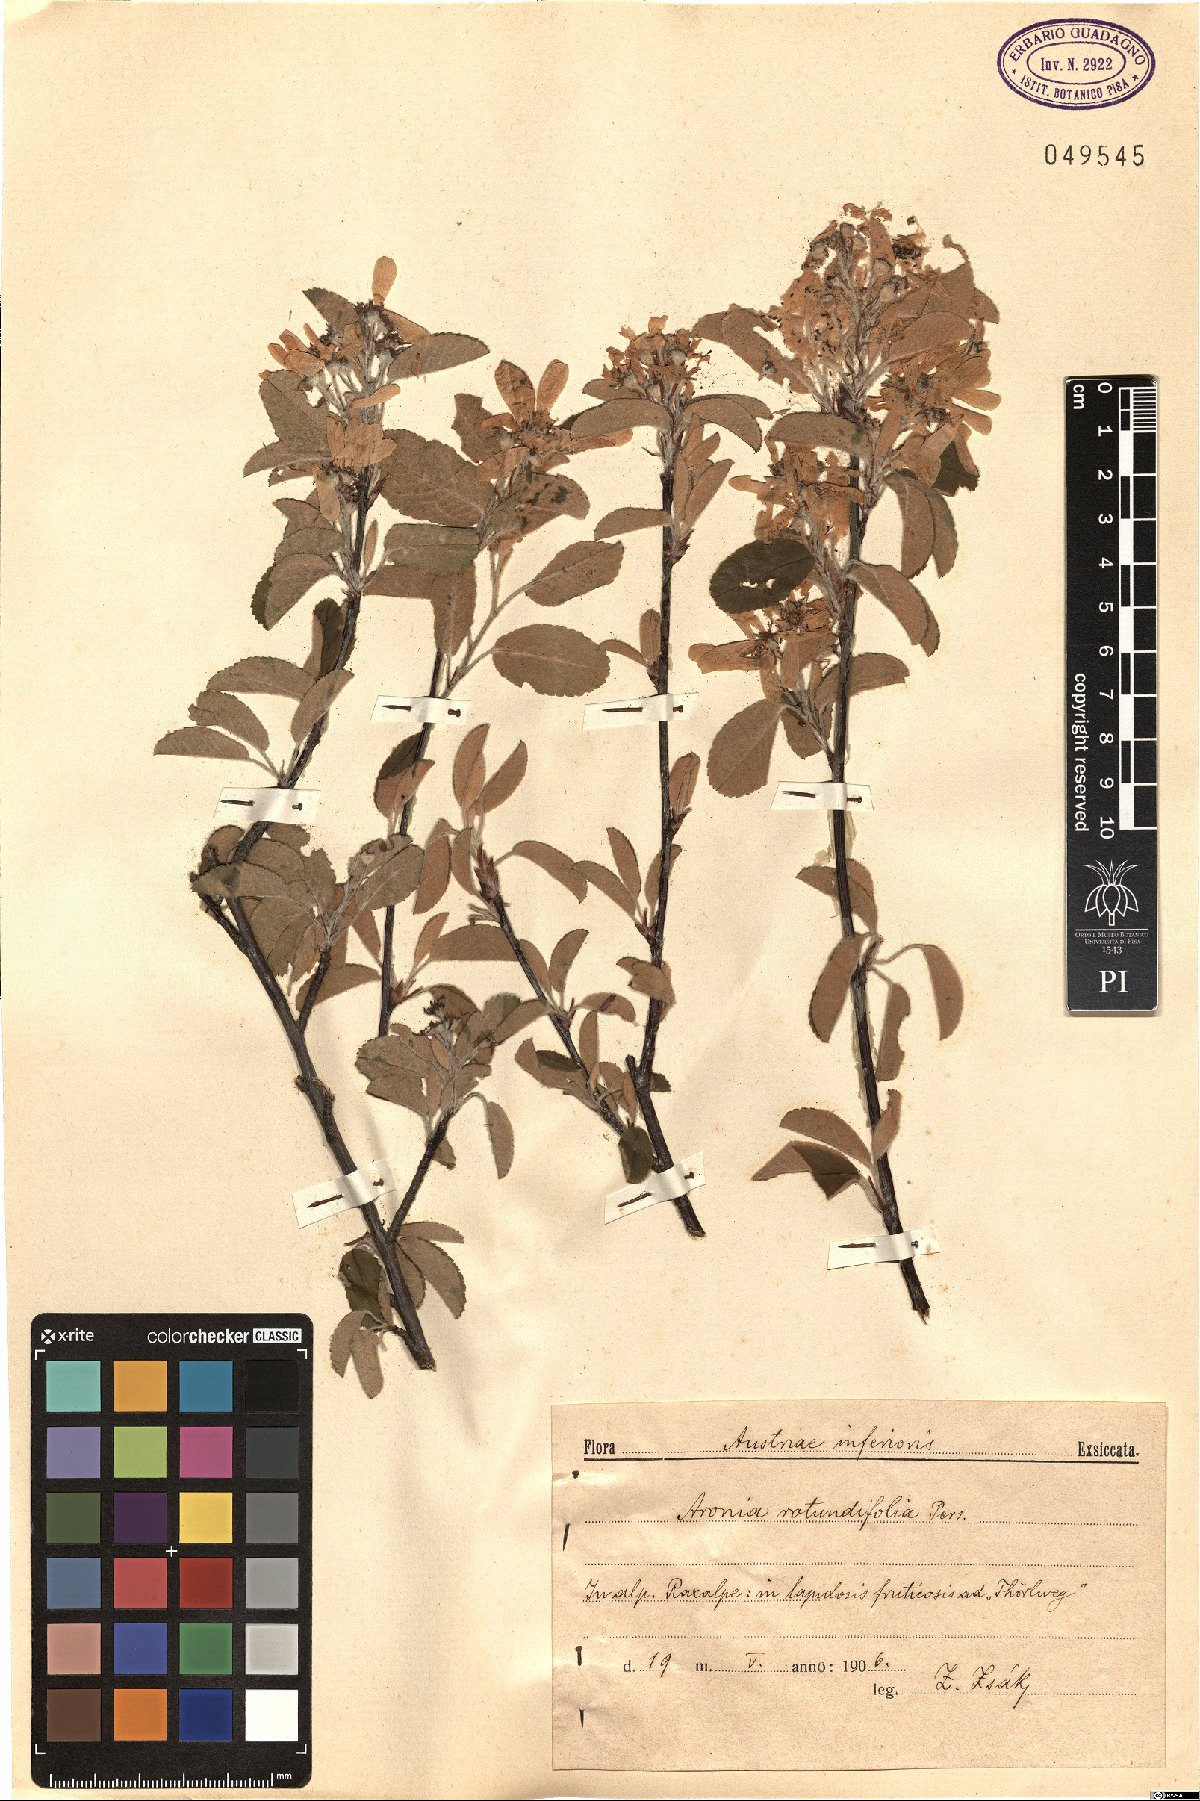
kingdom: Plantae
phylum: Tracheophyta
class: Magnoliopsida
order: Rosales
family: Rosaceae
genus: Amelanchier
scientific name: Amelanchier ovalis
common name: Serviceberry
